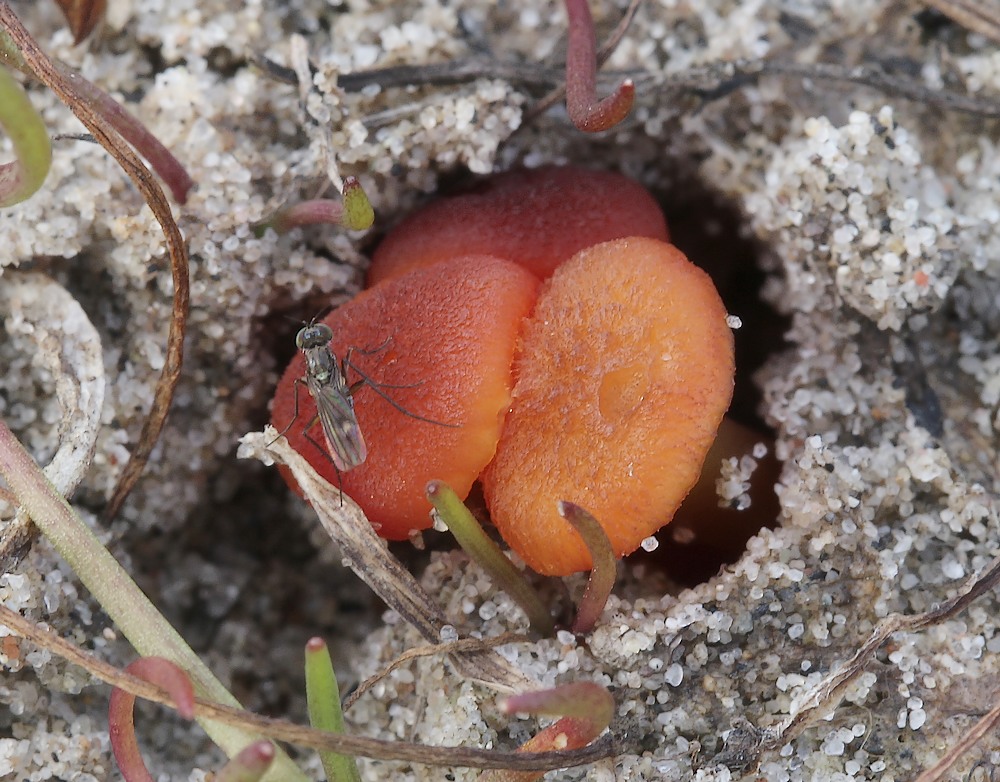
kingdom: Fungi
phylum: Basidiomycota
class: Agaricomycetes
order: Agaricales
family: Hygrophoraceae
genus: Hygrocybe
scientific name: Hygrocybe
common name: vokshat
